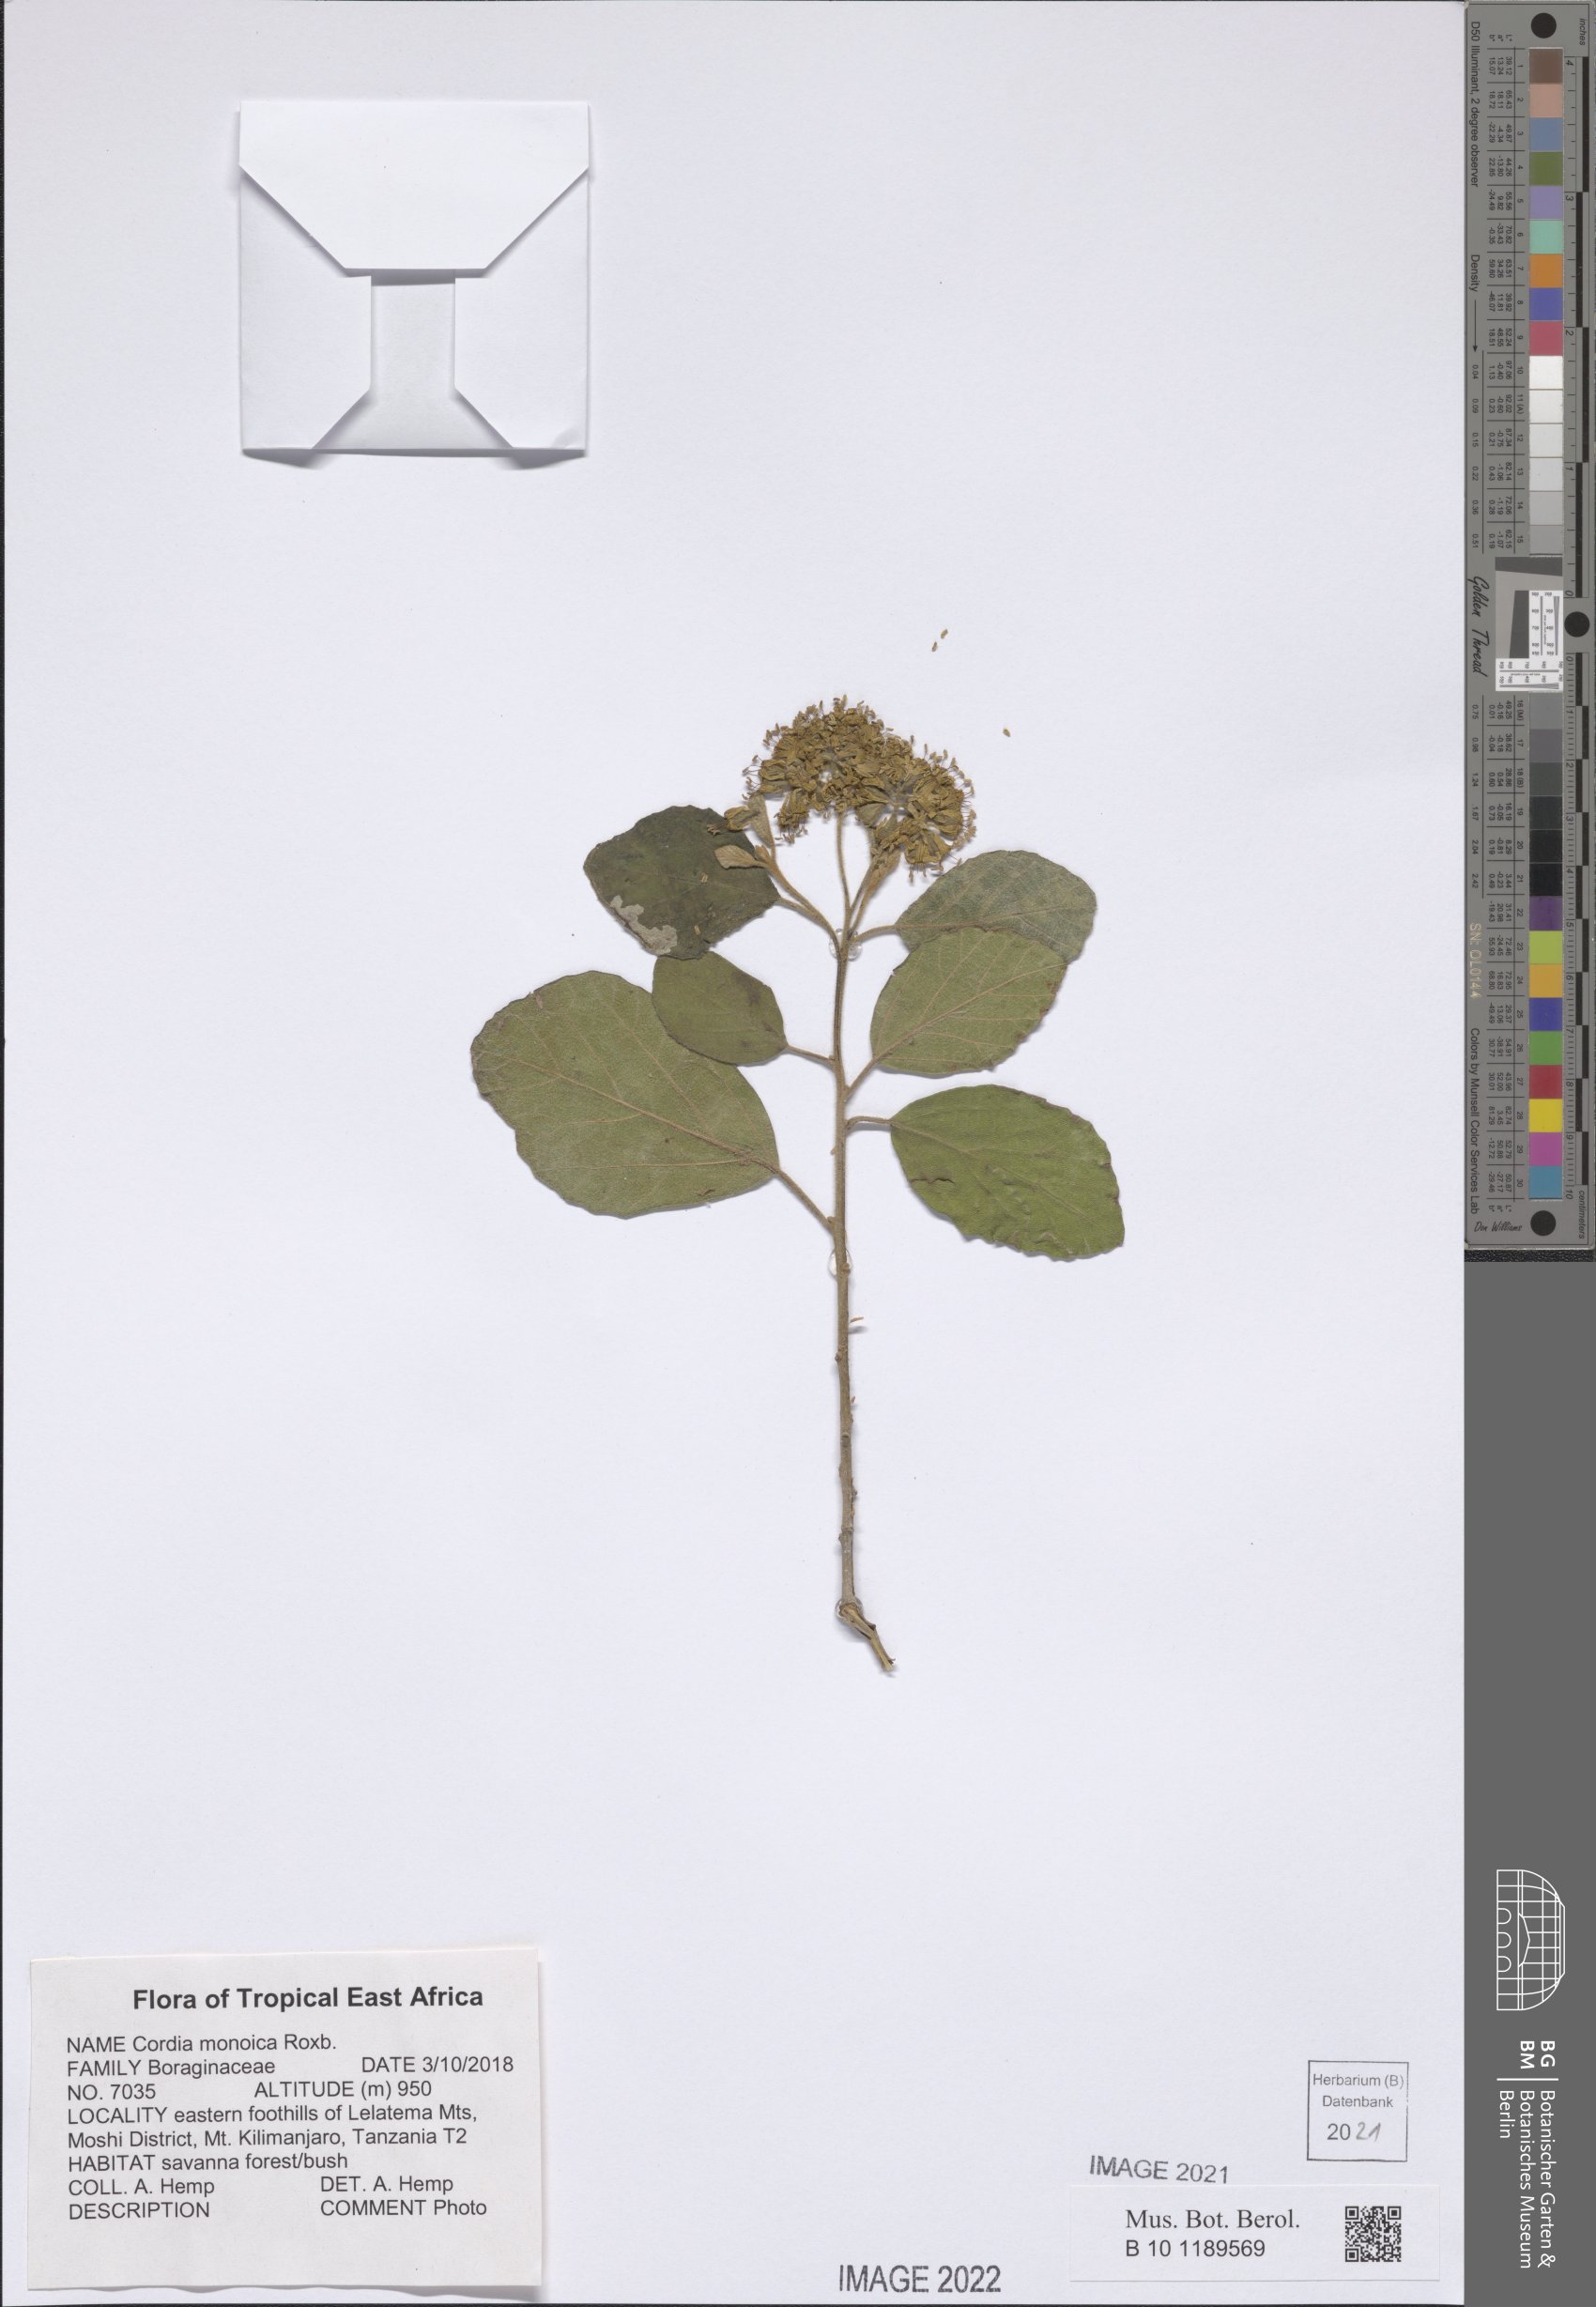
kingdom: Plantae
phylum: Tracheophyta
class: Magnoliopsida
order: Boraginales
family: Cordiaceae
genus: Cordia
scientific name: Cordia monoica
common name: Snot berry
